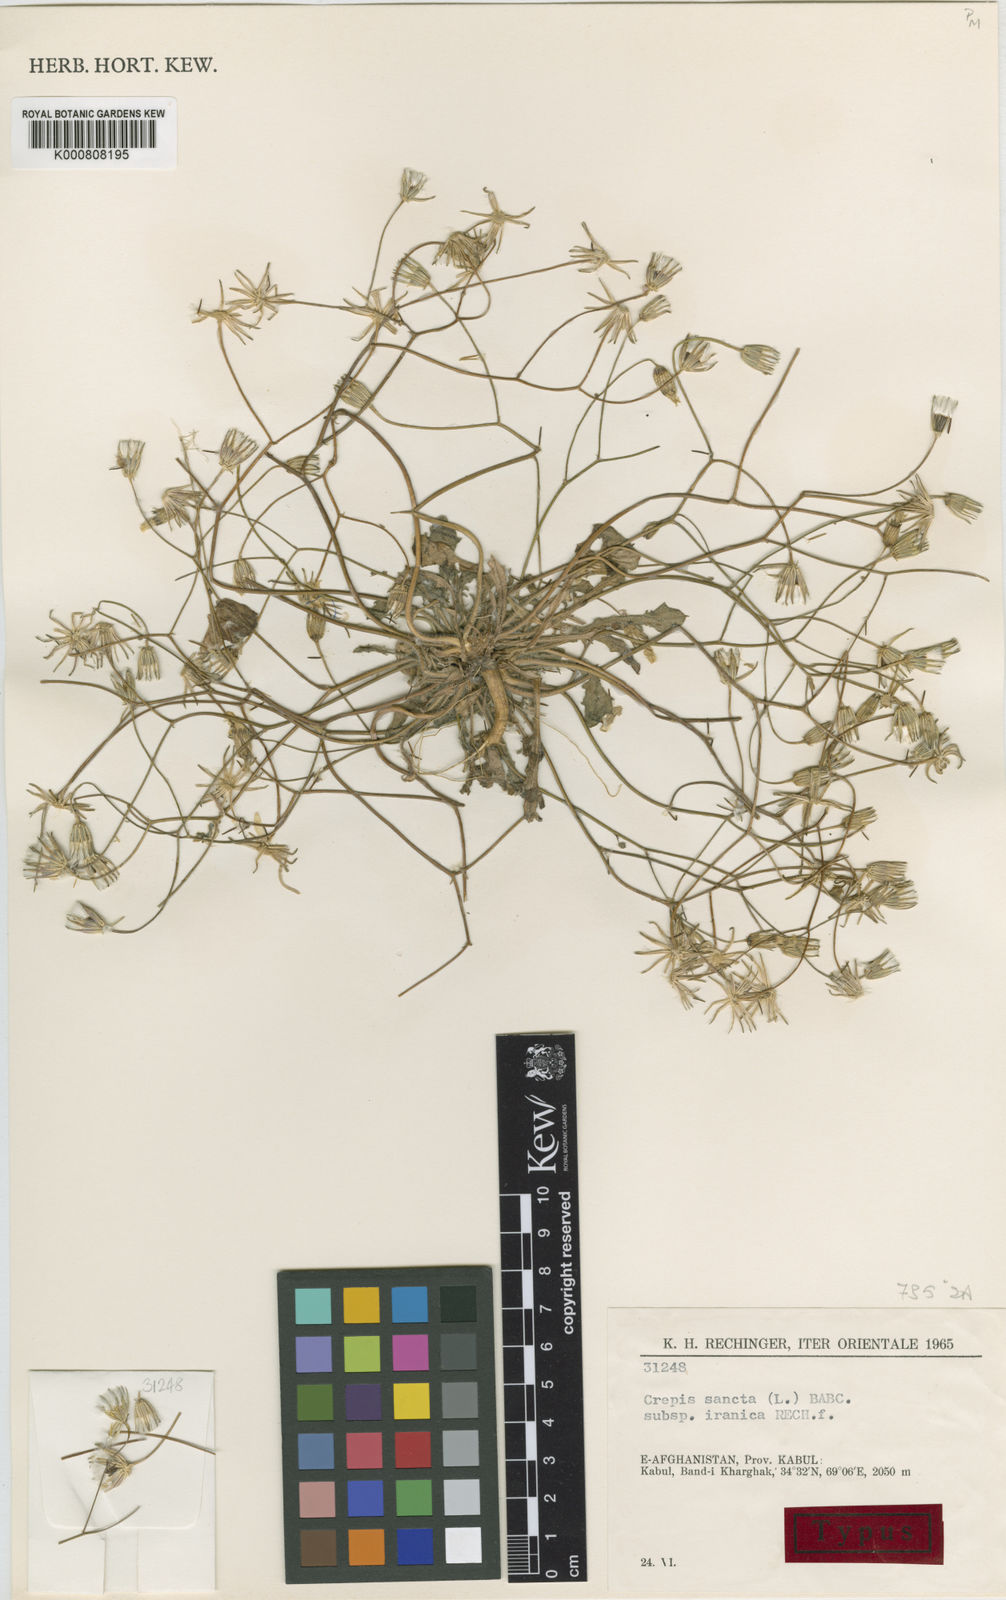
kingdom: Plantae
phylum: Tracheophyta
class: Magnoliopsida
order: Asterales
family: Asteraceae
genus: Crepis
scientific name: Crepis sancta
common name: Hawk's-beard
